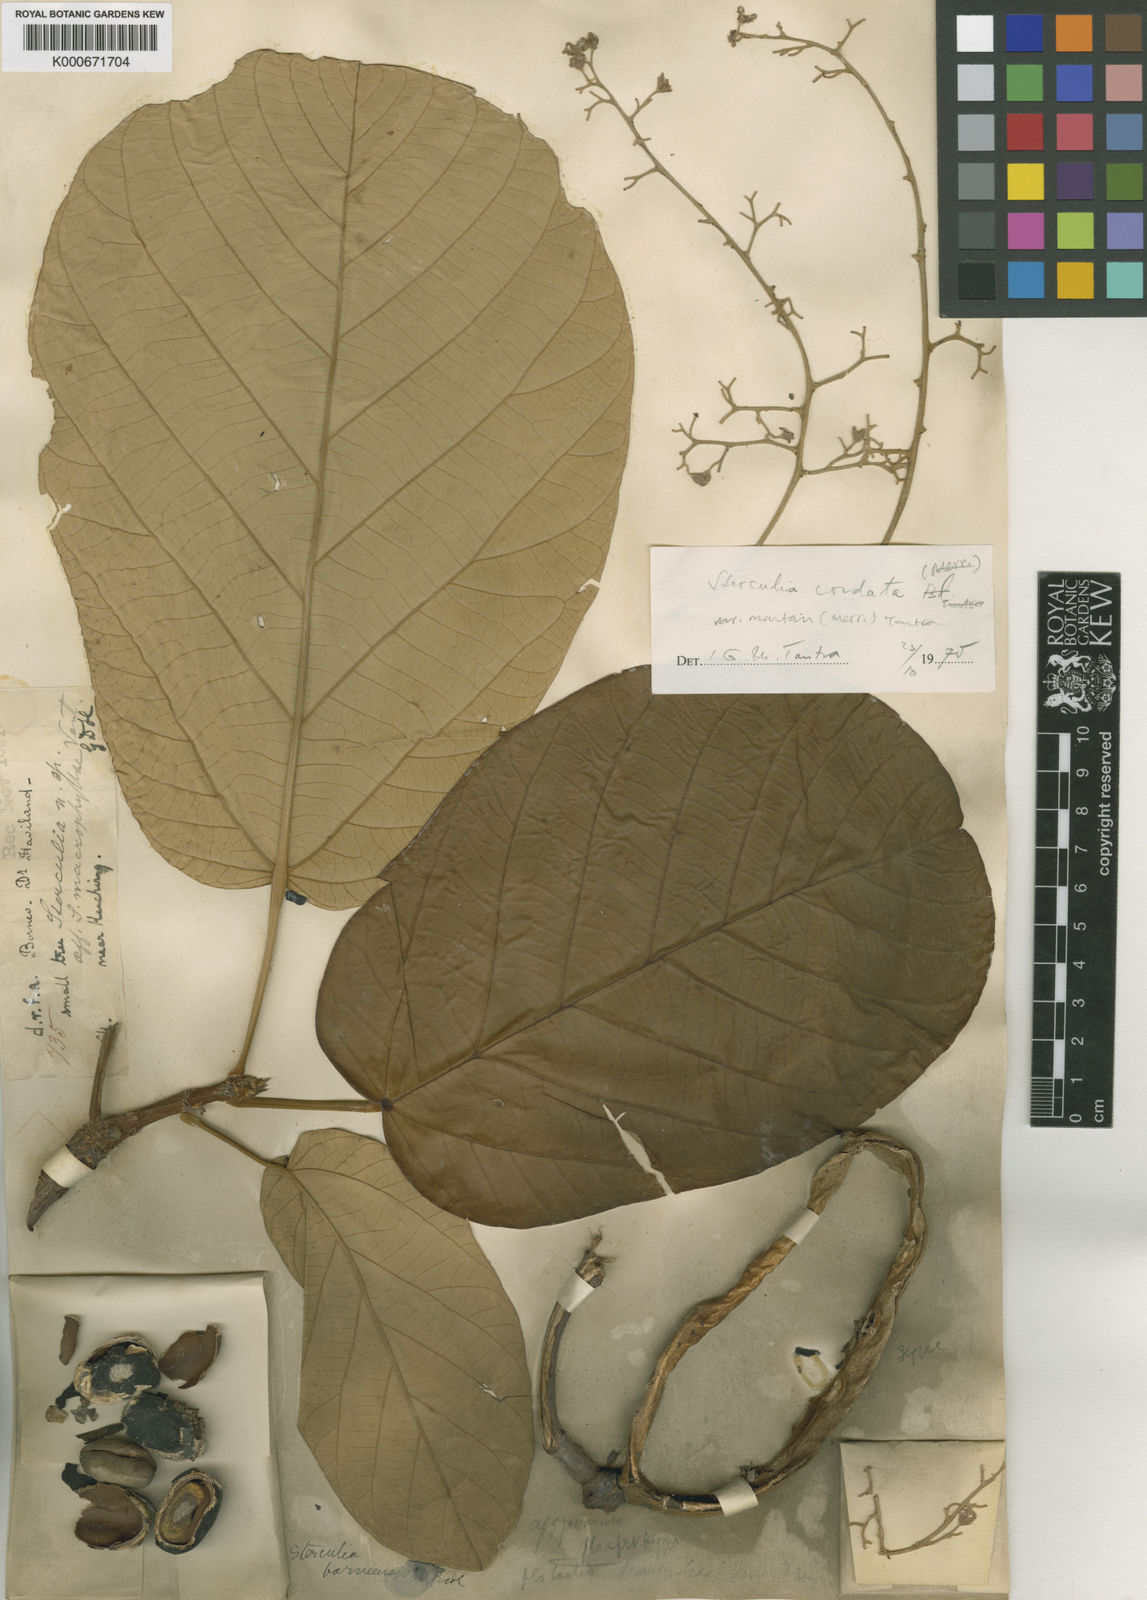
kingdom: Plantae
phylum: Tracheophyta
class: Magnoliopsida
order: Malvales
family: Malvaceae
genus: Sterculia
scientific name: Sterculia cordata
